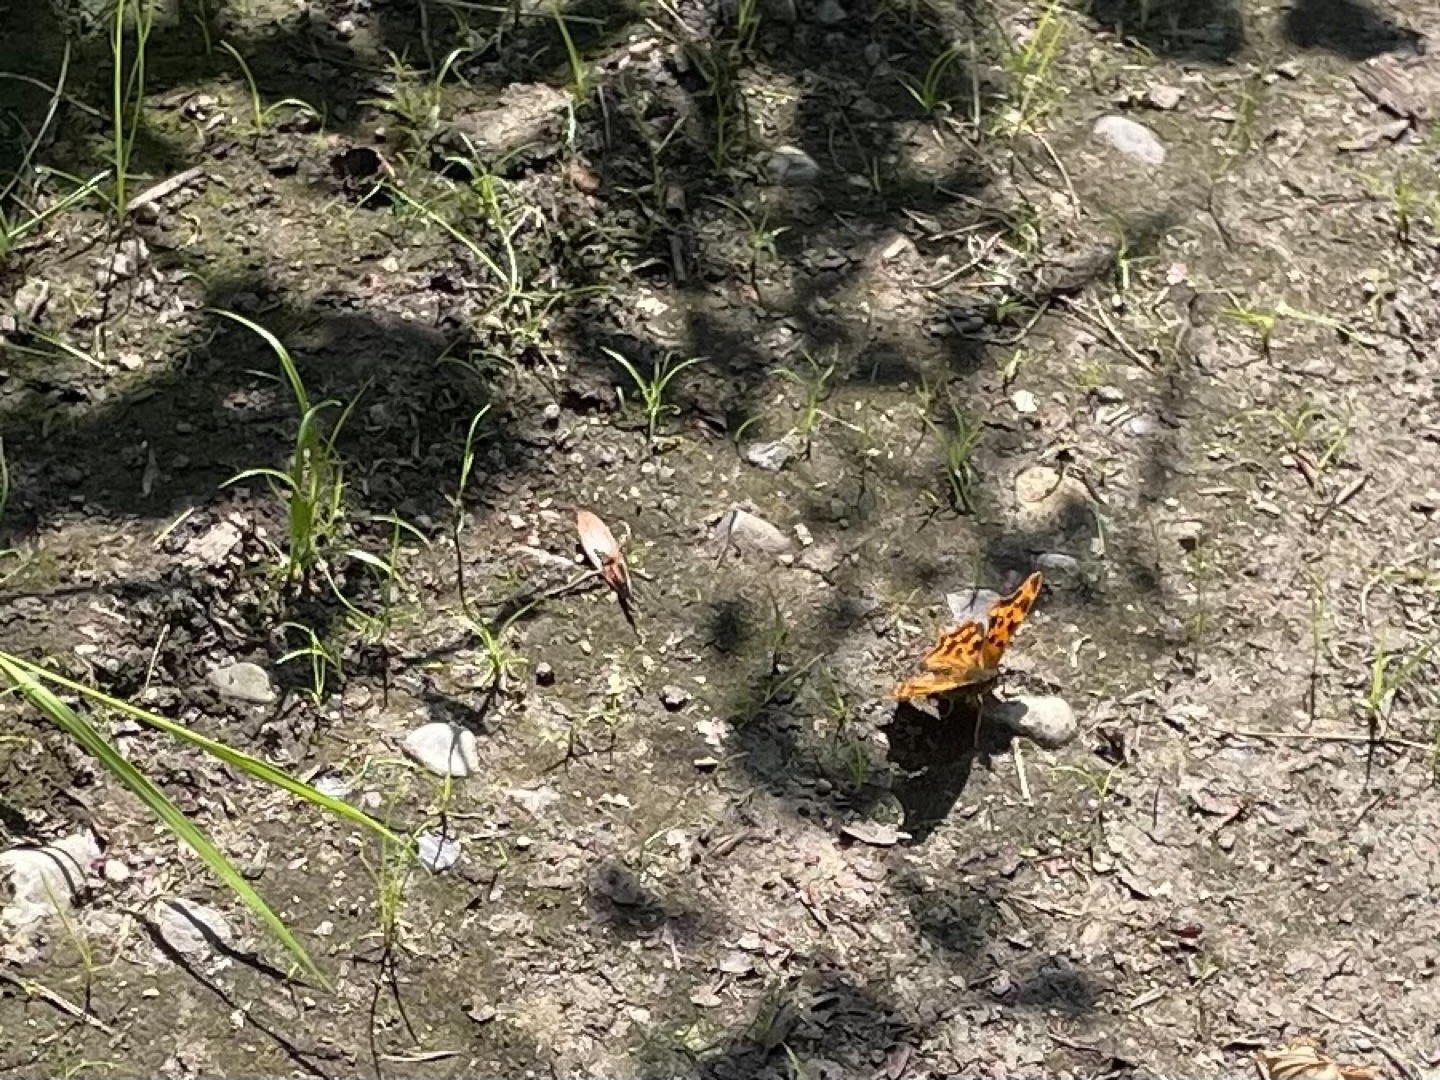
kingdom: Animalia
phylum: Arthropoda
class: Insecta
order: Lepidoptera
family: Nymphalidae
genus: Polygonia
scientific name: Polygonia c-album
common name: Det hvide C
